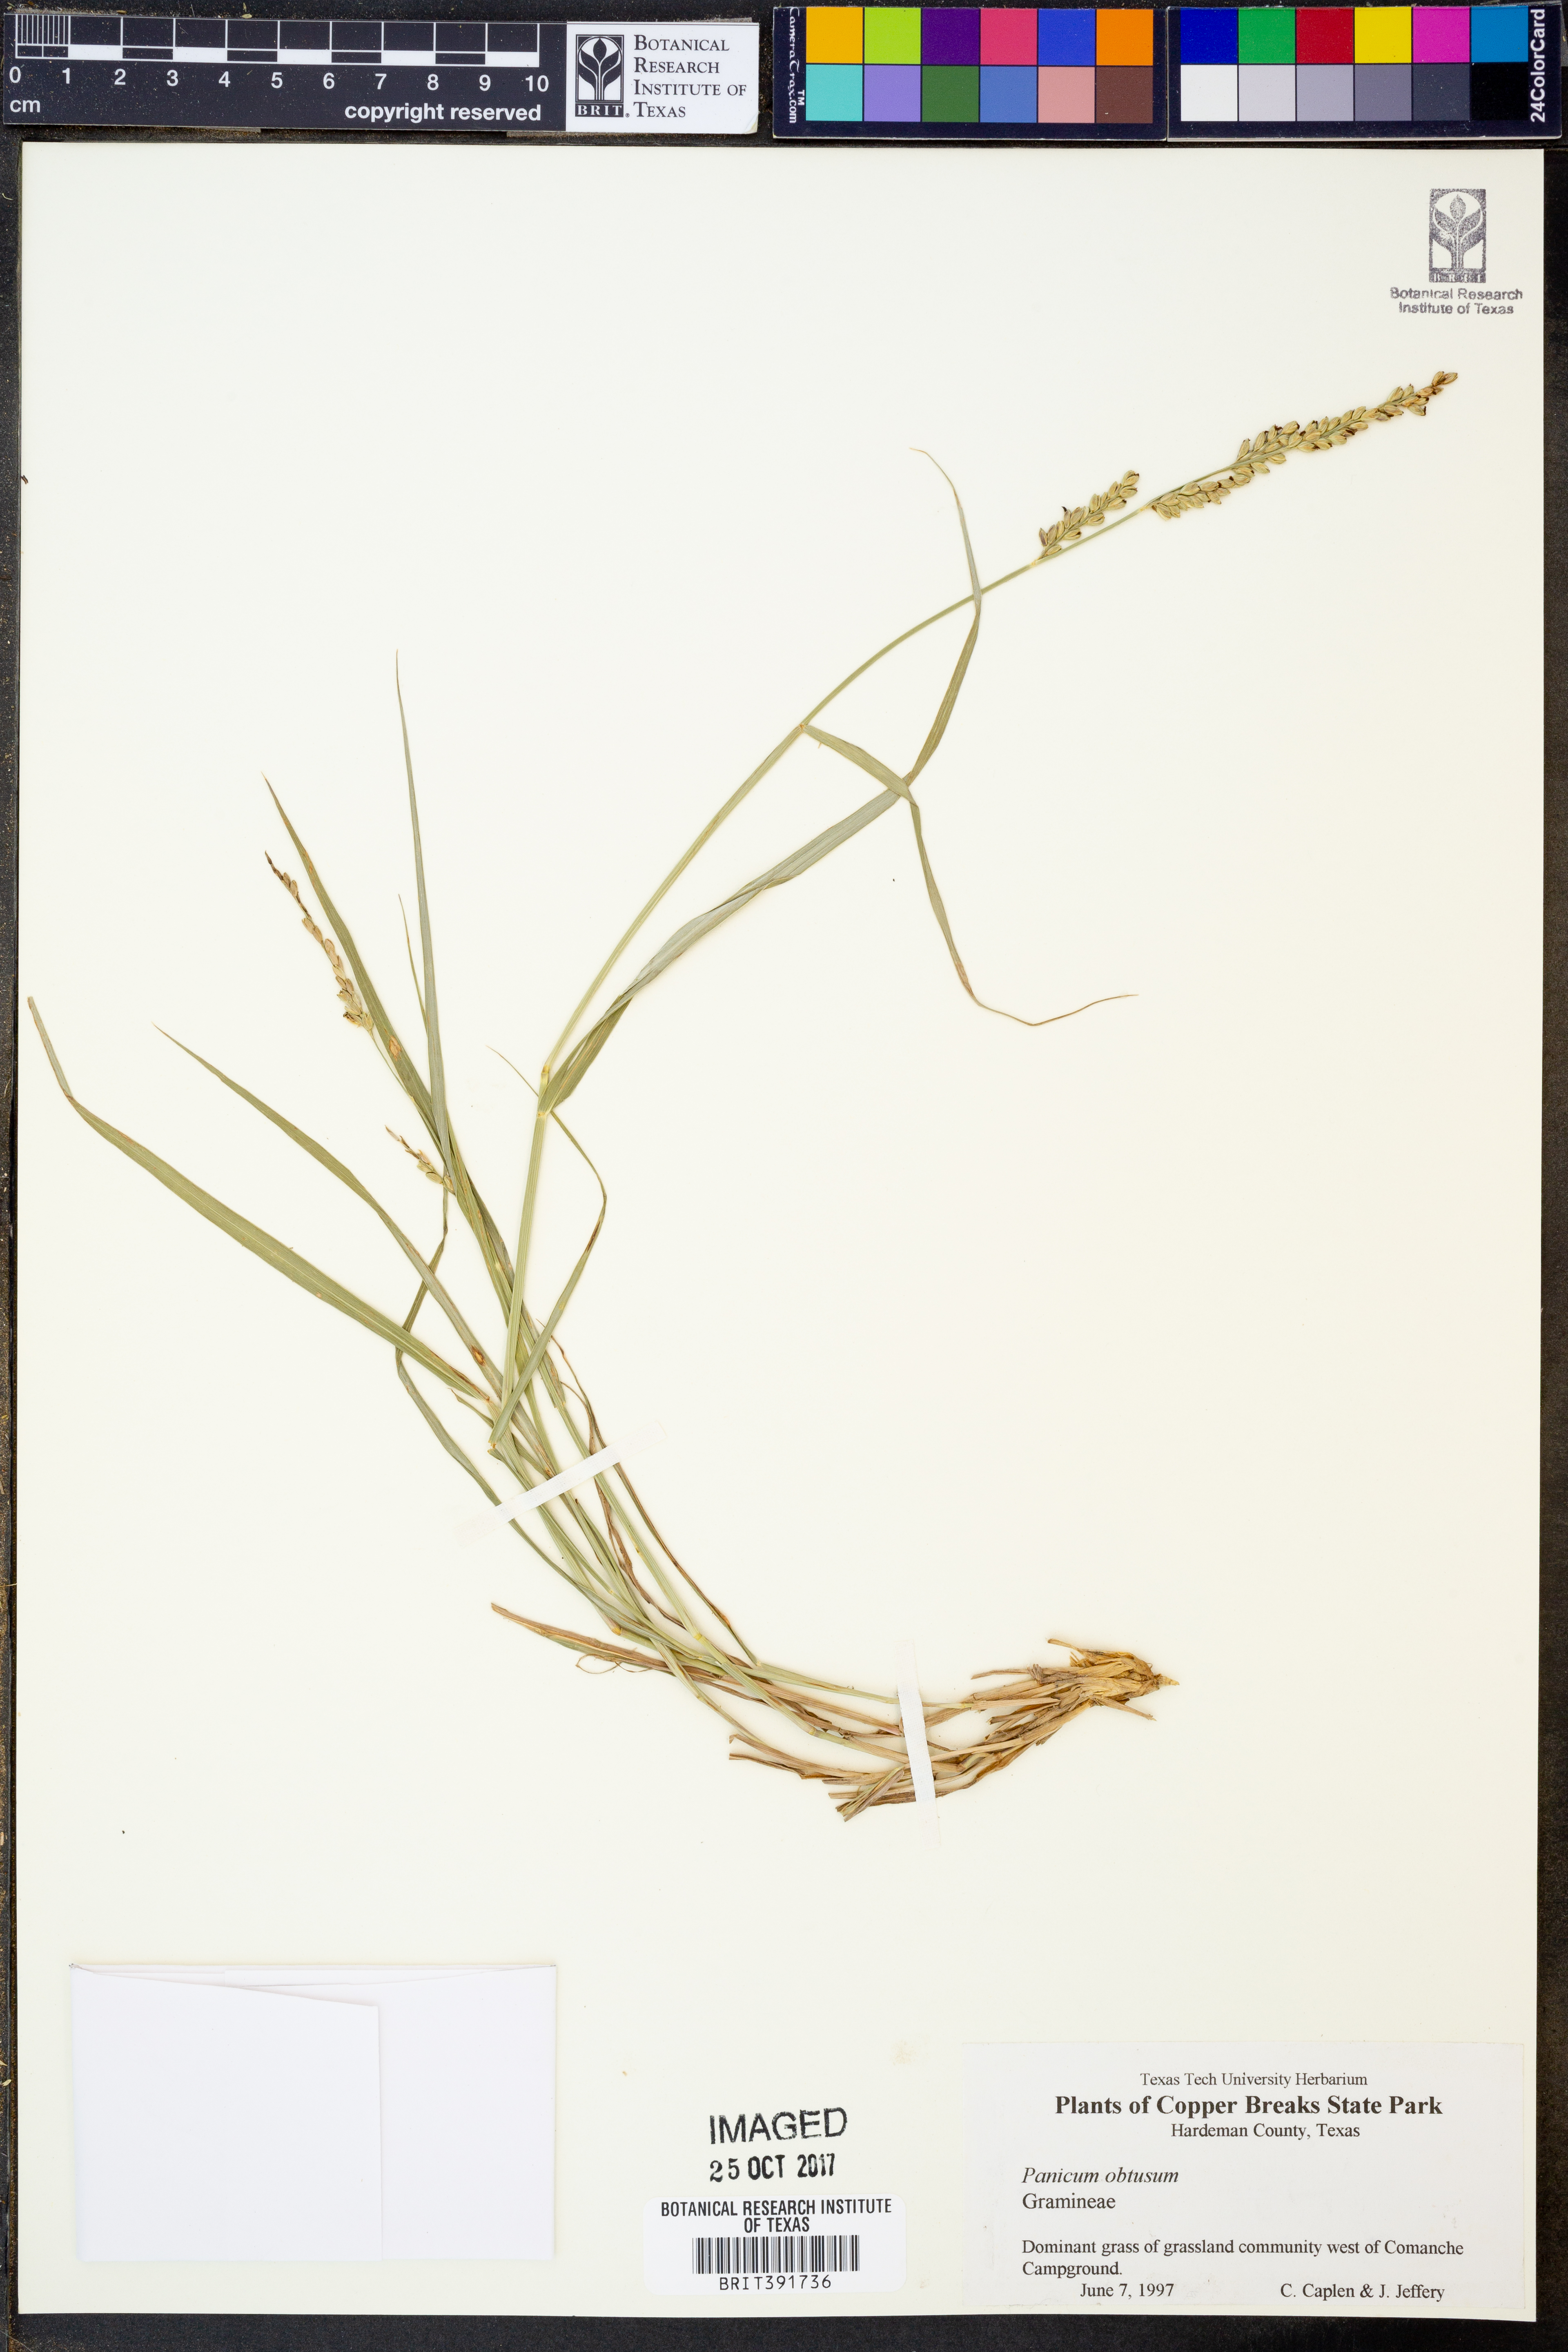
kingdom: Plantae
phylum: Tracheophyta
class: Liliopsida
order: Poales
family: Poaceae
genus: Hopia
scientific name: Hopia obtusa
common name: Vine-mesquite
